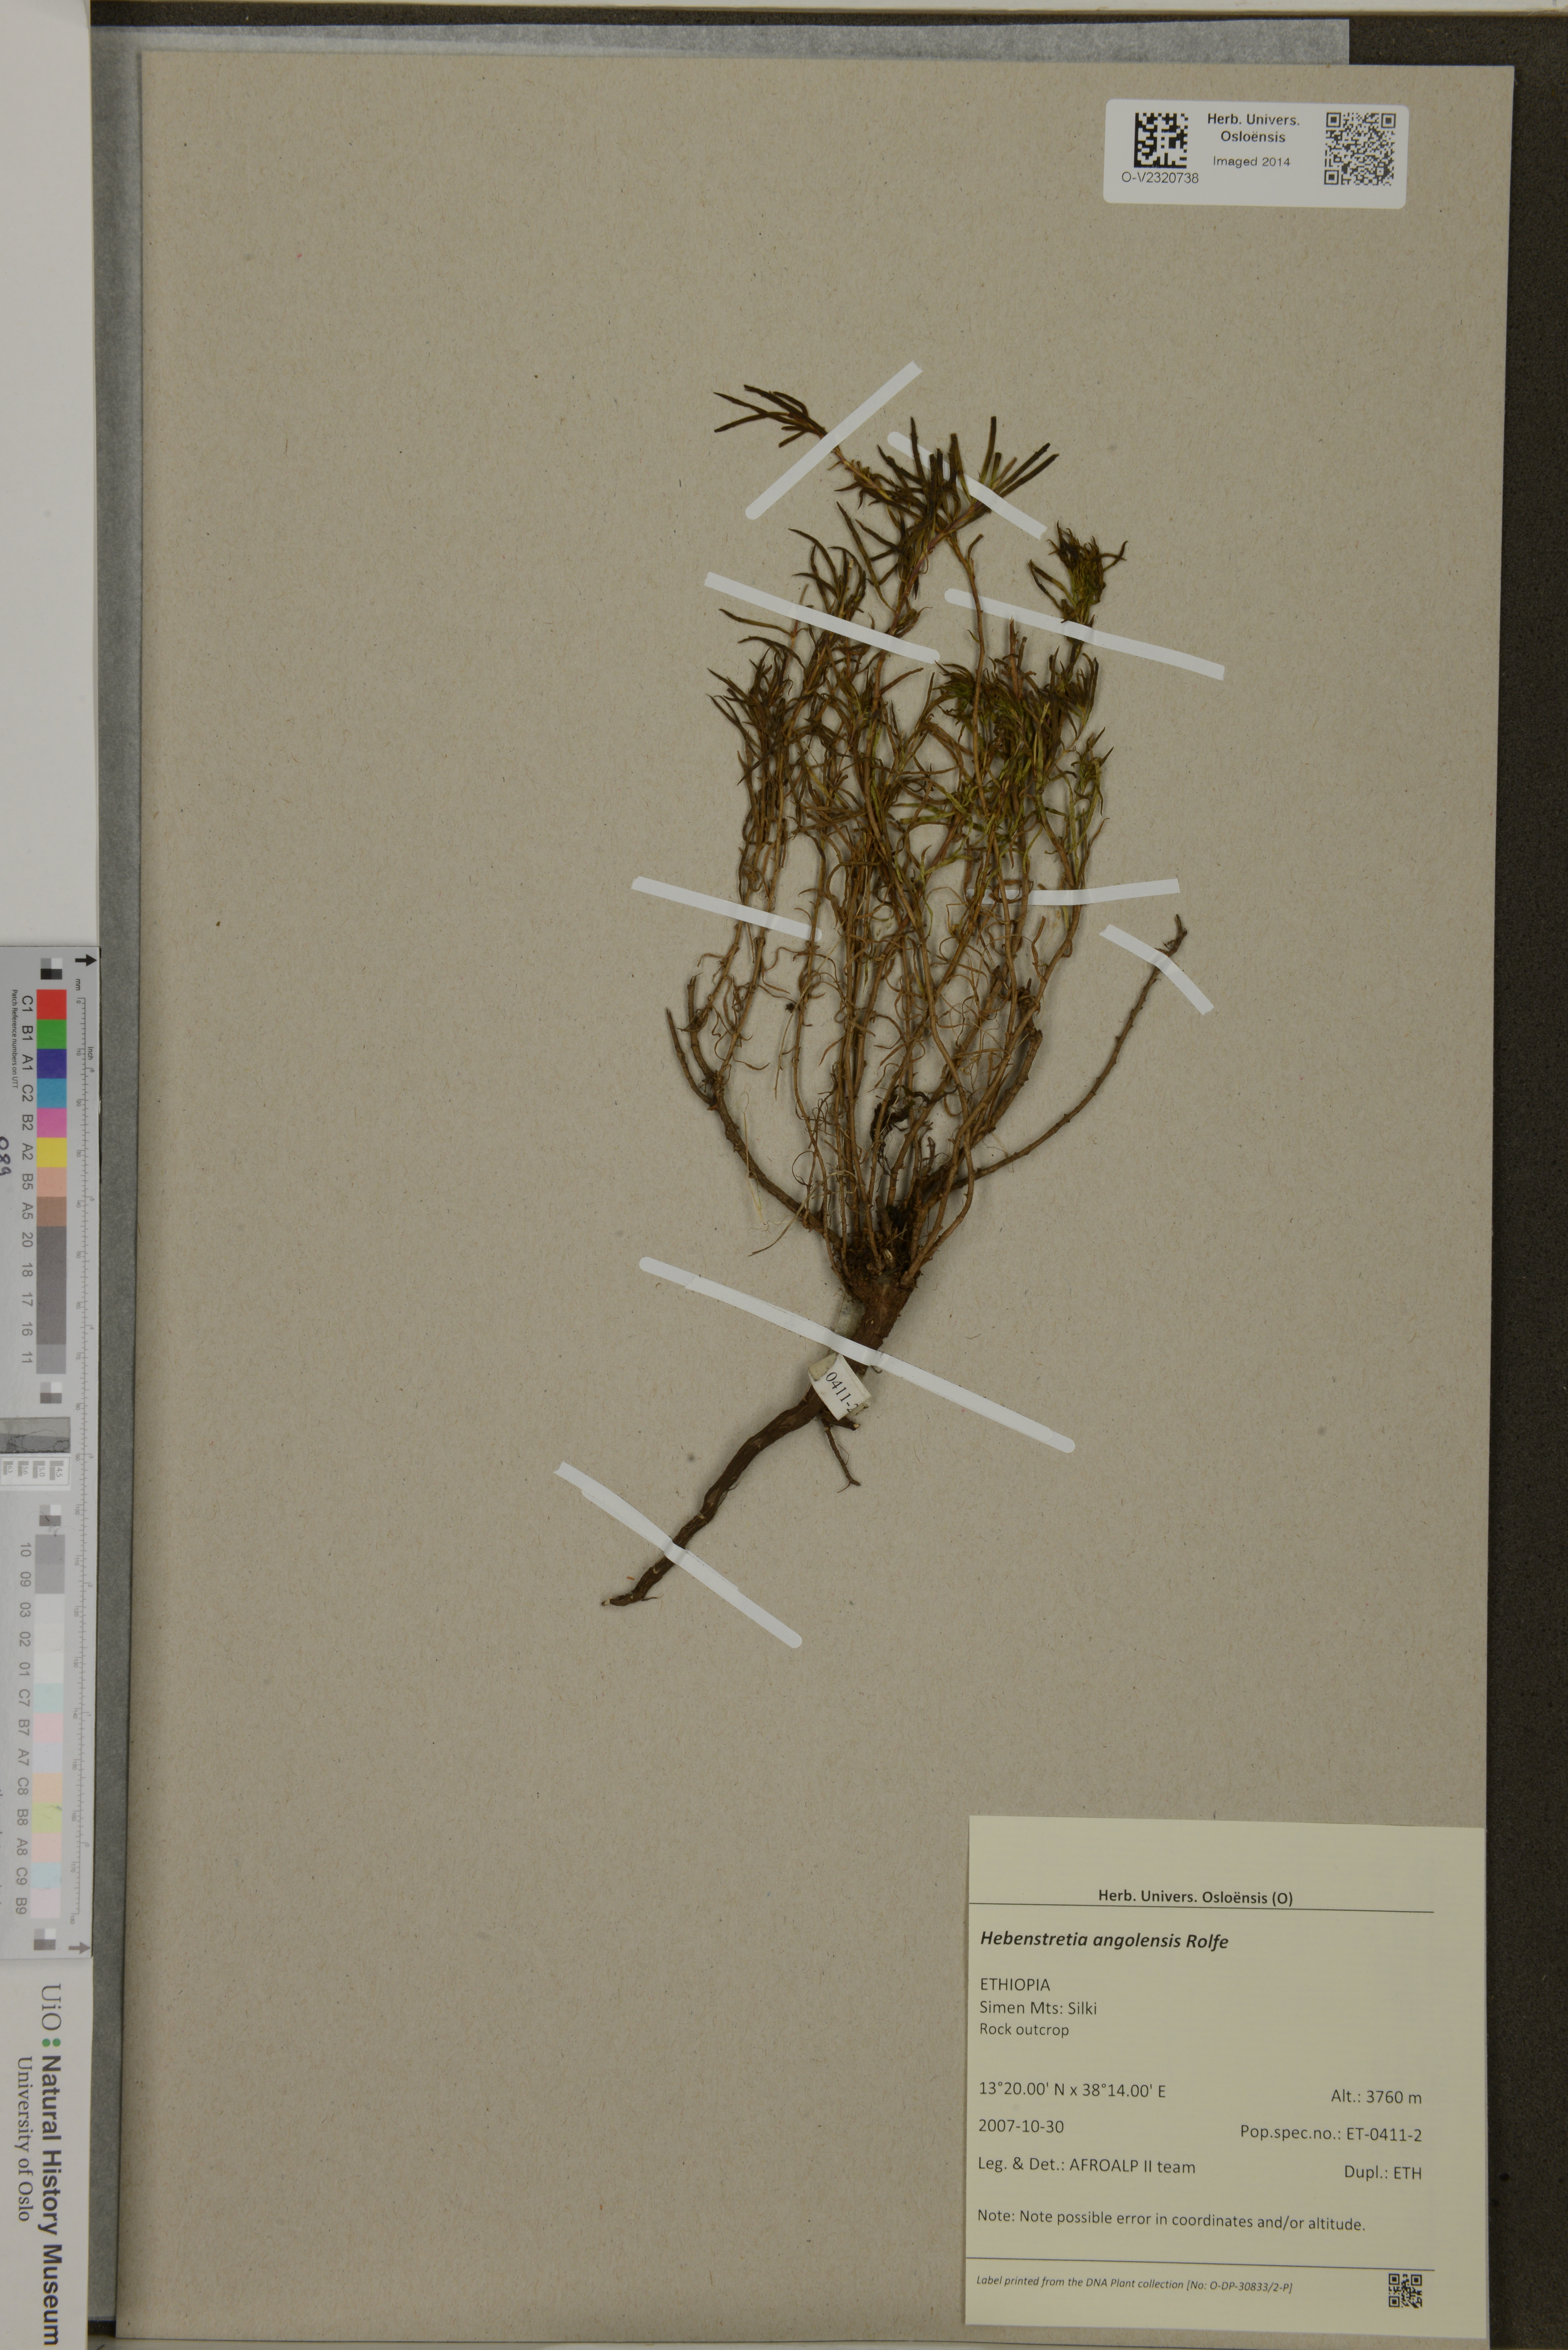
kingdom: Plantae
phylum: Tracheophyta
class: Magnoliopsida
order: Lamiales
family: Scrophulariaceae
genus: Hebenstretia
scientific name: Hebenstretia angolensis
